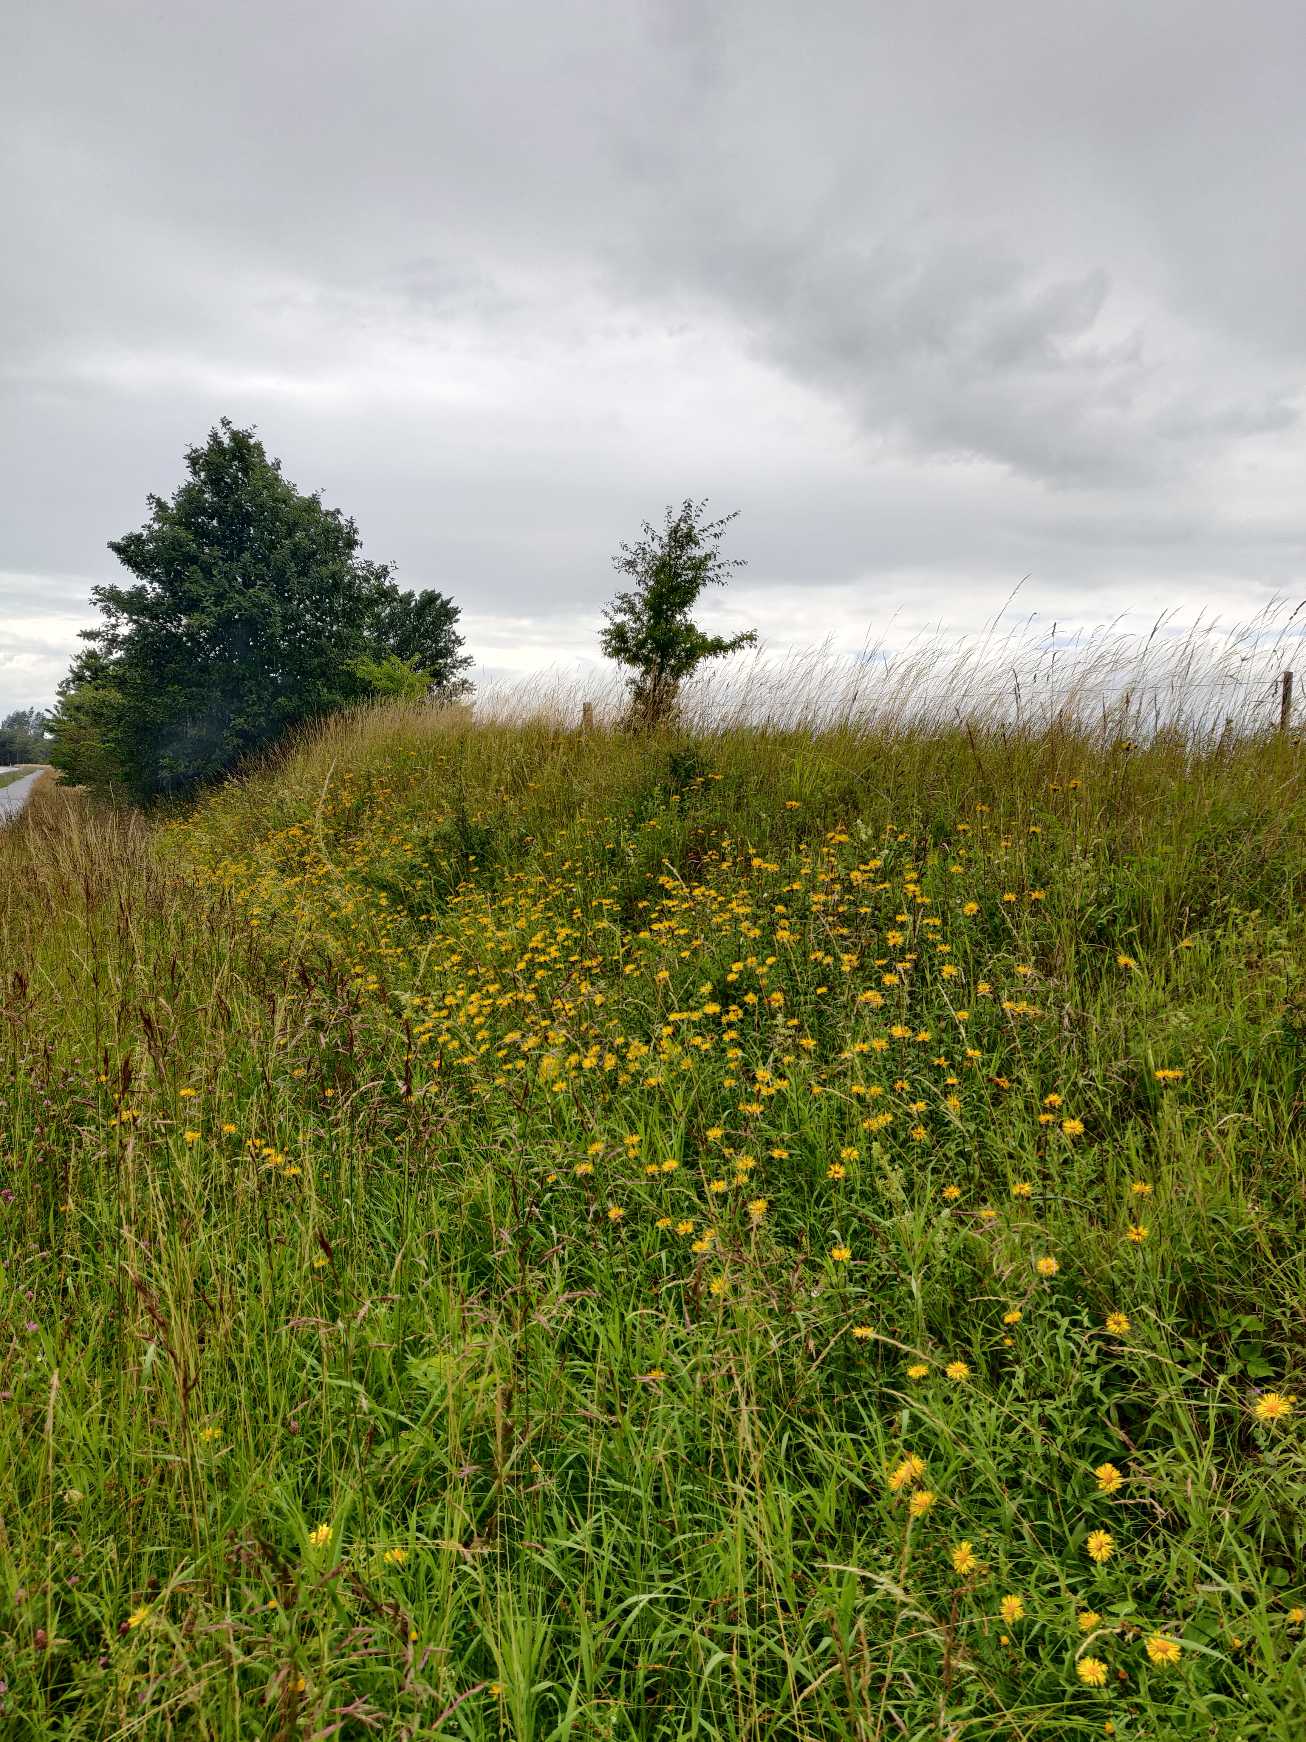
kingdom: Plantae
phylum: Tracheophyta
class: Magnoliopsida
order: Asterales
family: Asteraceae
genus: Pentanema
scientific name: Pentanema salicinum
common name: Pile-alant
